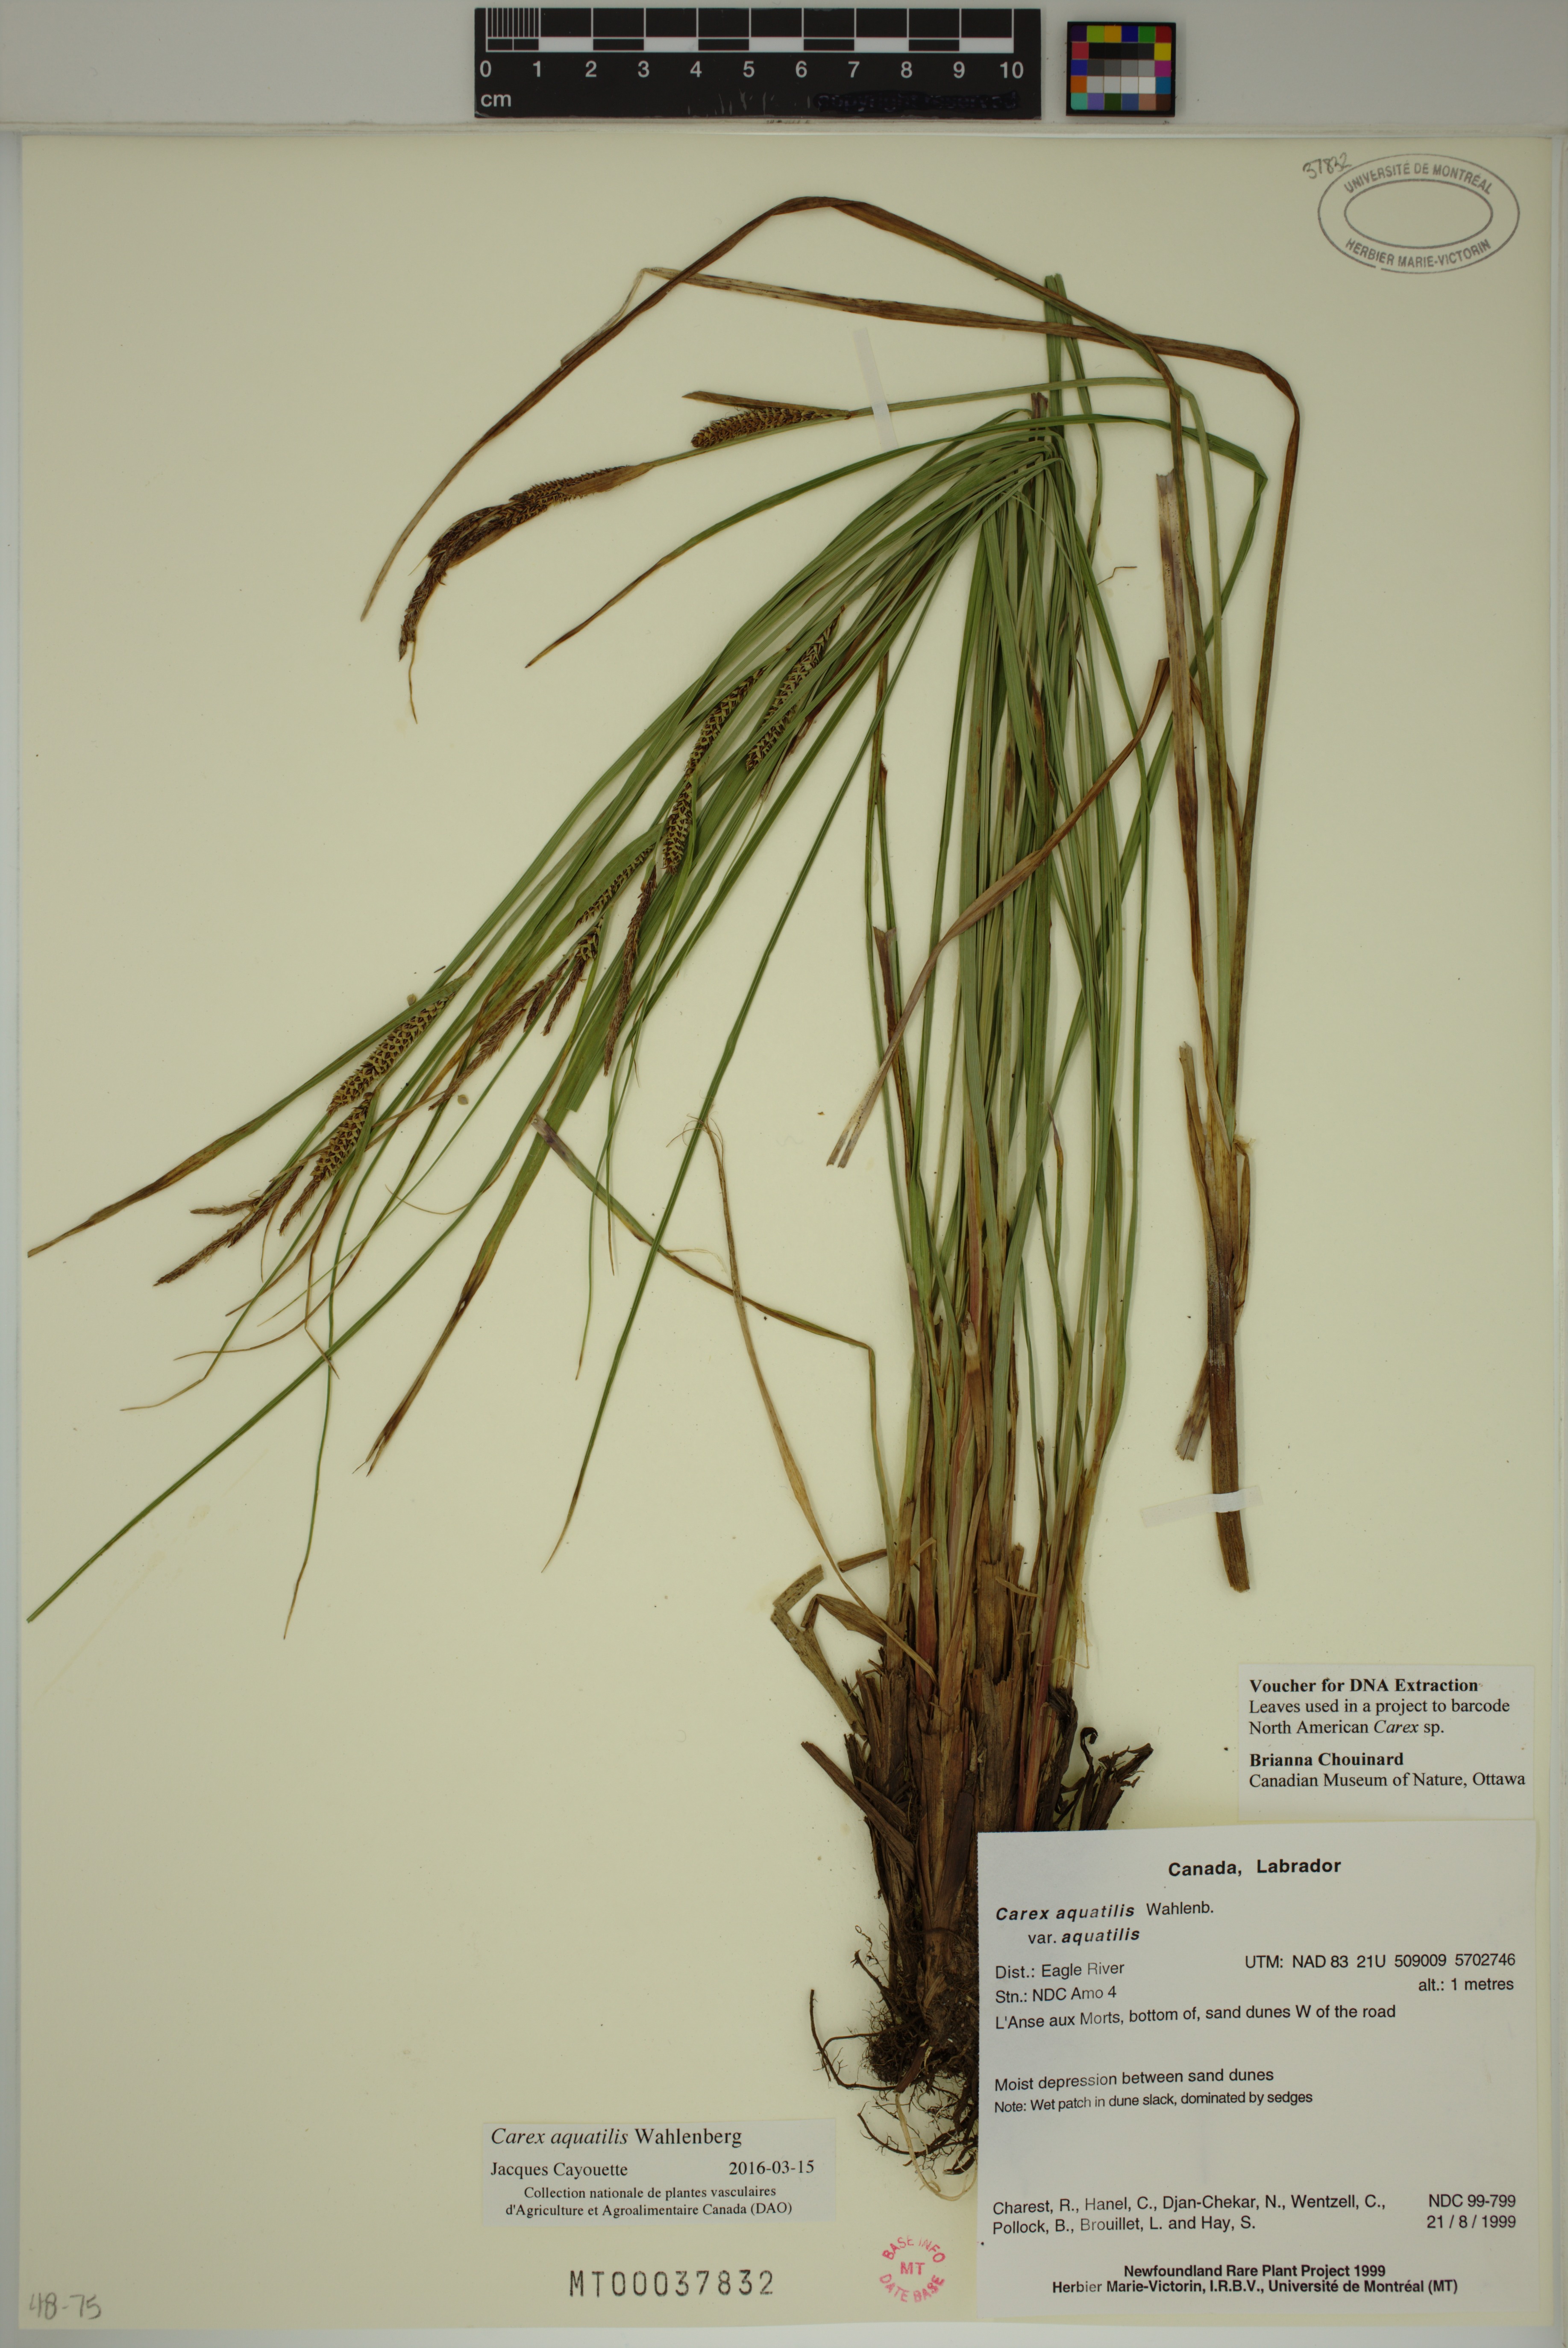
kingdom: Plantae
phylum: Tracheophyta
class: Liliopsida
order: Poales
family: Cyperaceae
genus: Carex
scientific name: Carex aquatilis
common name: Water sedge
